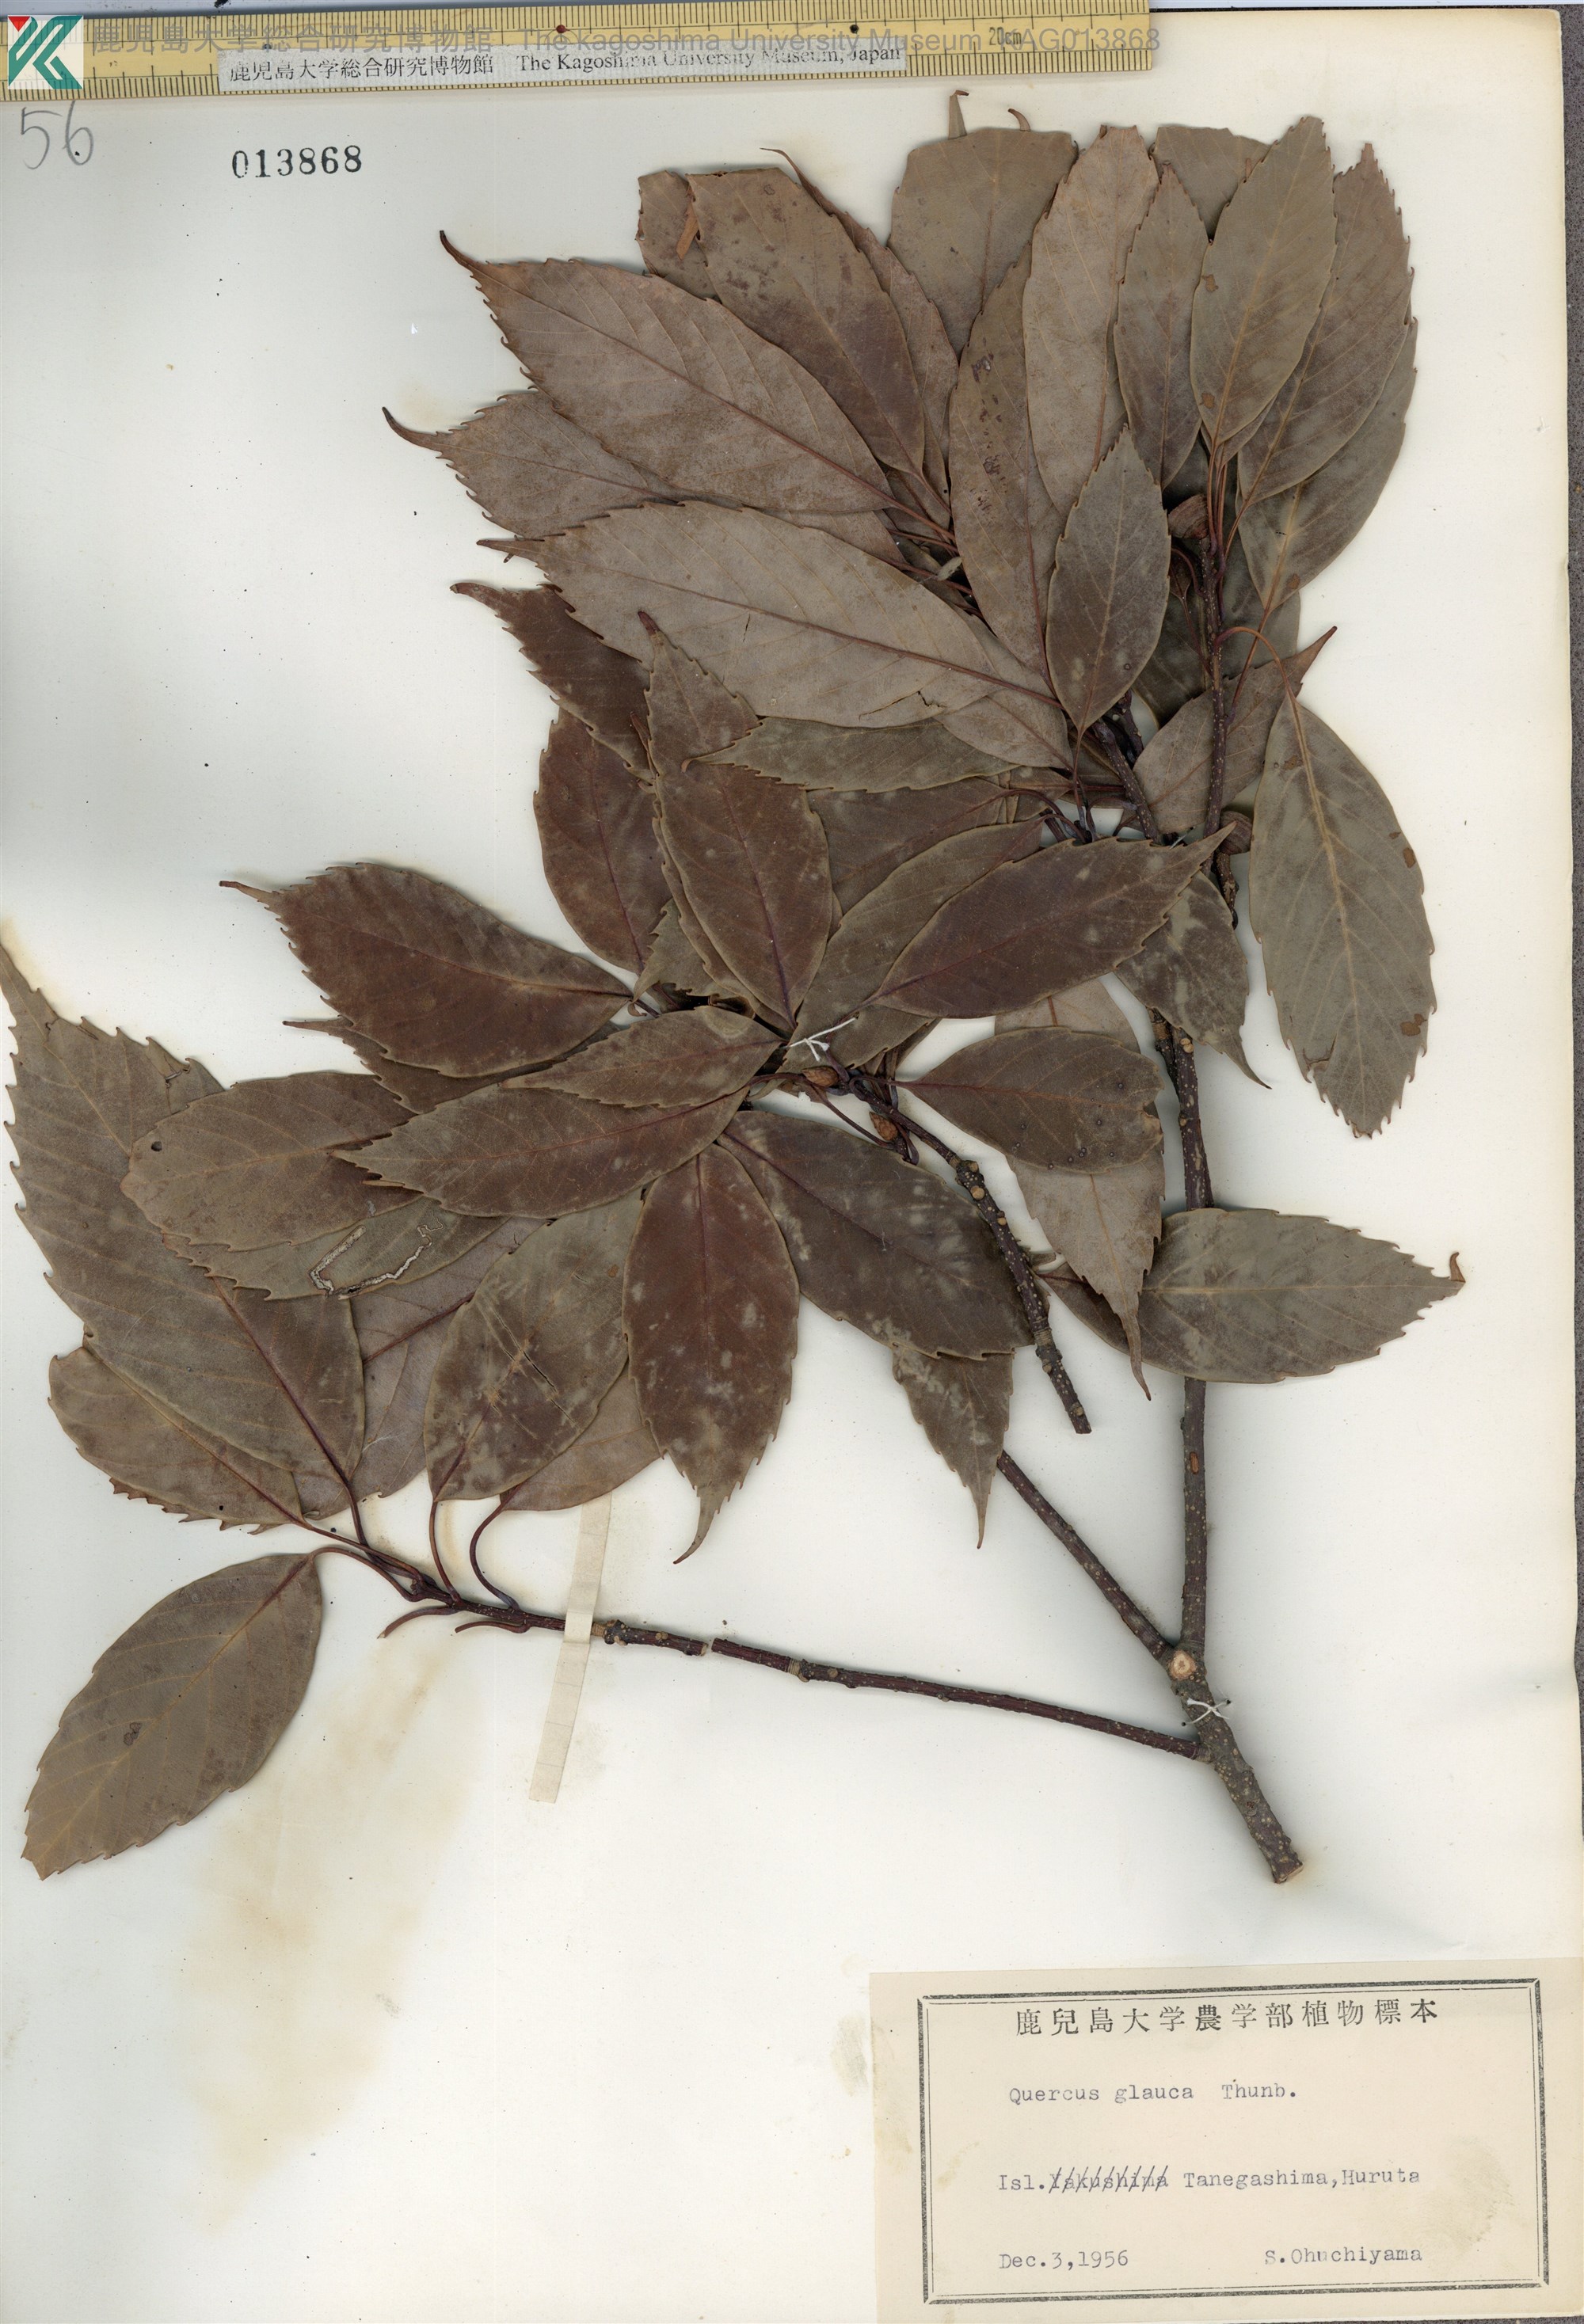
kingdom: Plantae
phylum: Tracheophyta
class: Magnoliopsida
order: Fagales
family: Fagaceae
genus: Quercus
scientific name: Quercus glauca
